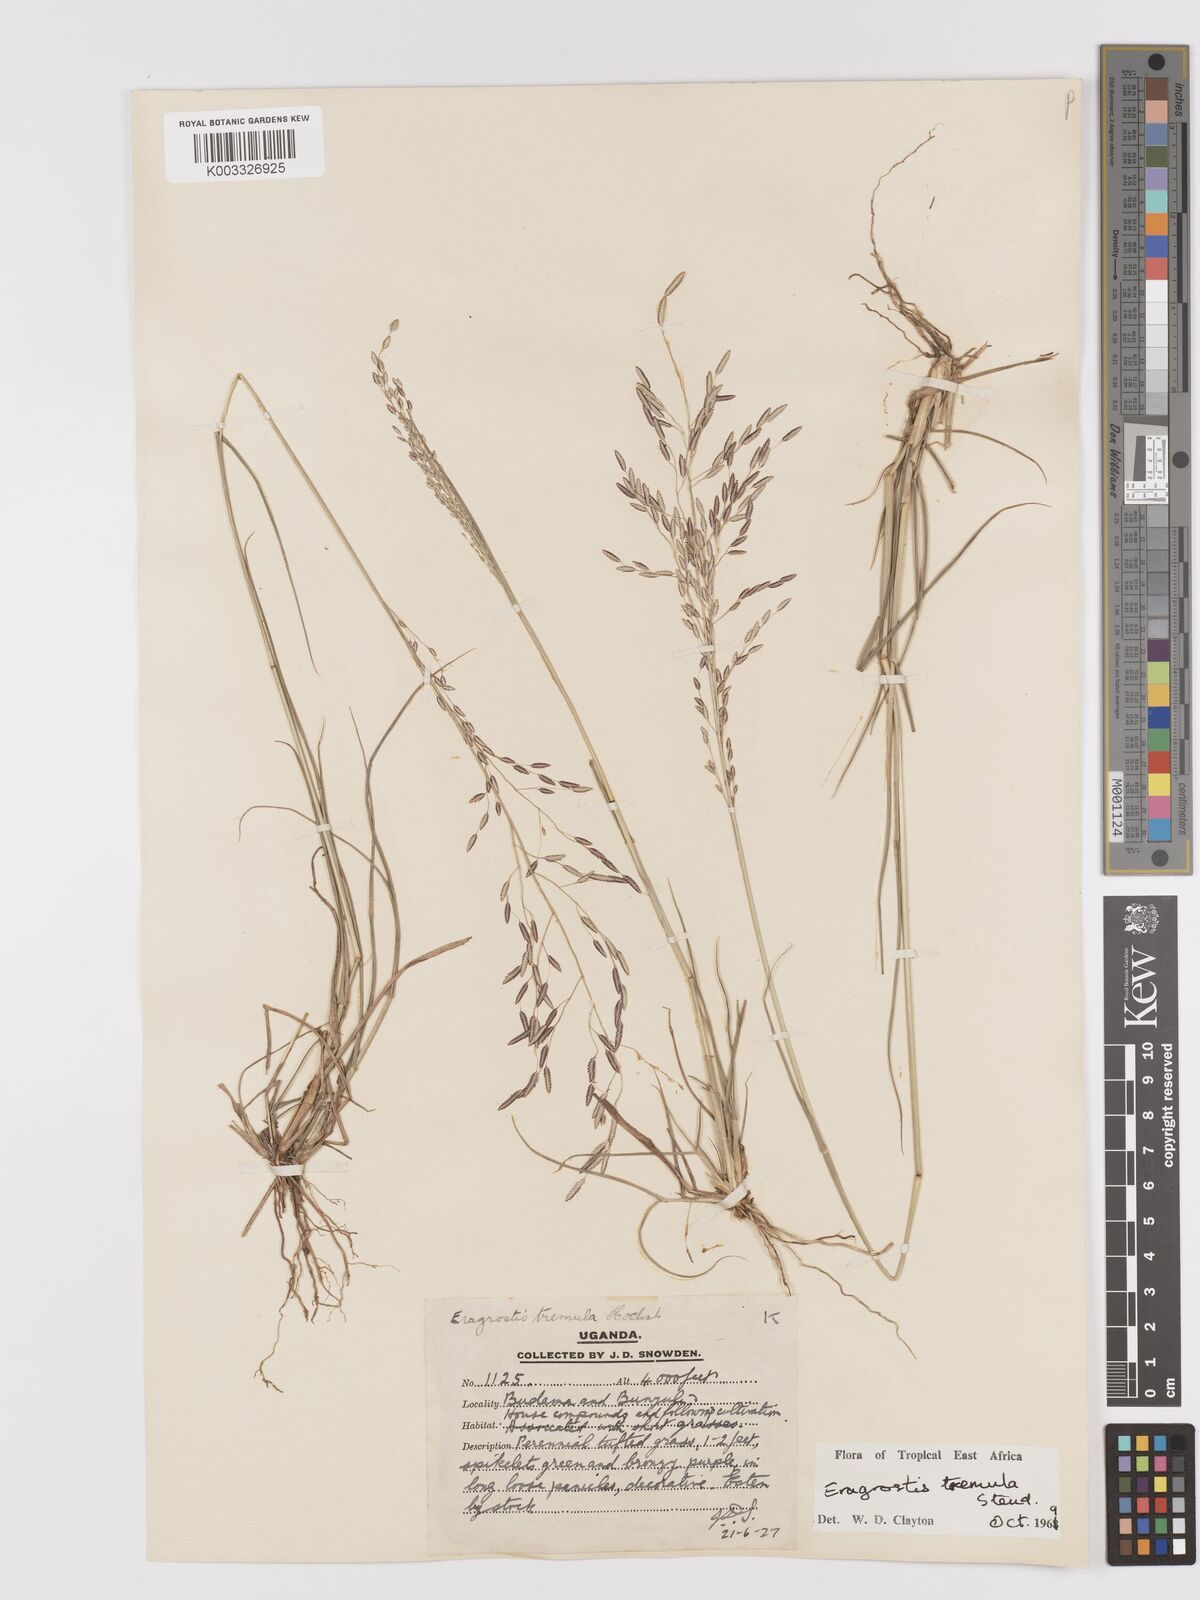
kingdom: Plantae
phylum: Tracheophyta
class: Liliopsida
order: Poales
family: Poaceae
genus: Eragrostis
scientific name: Eragrostis tremula
